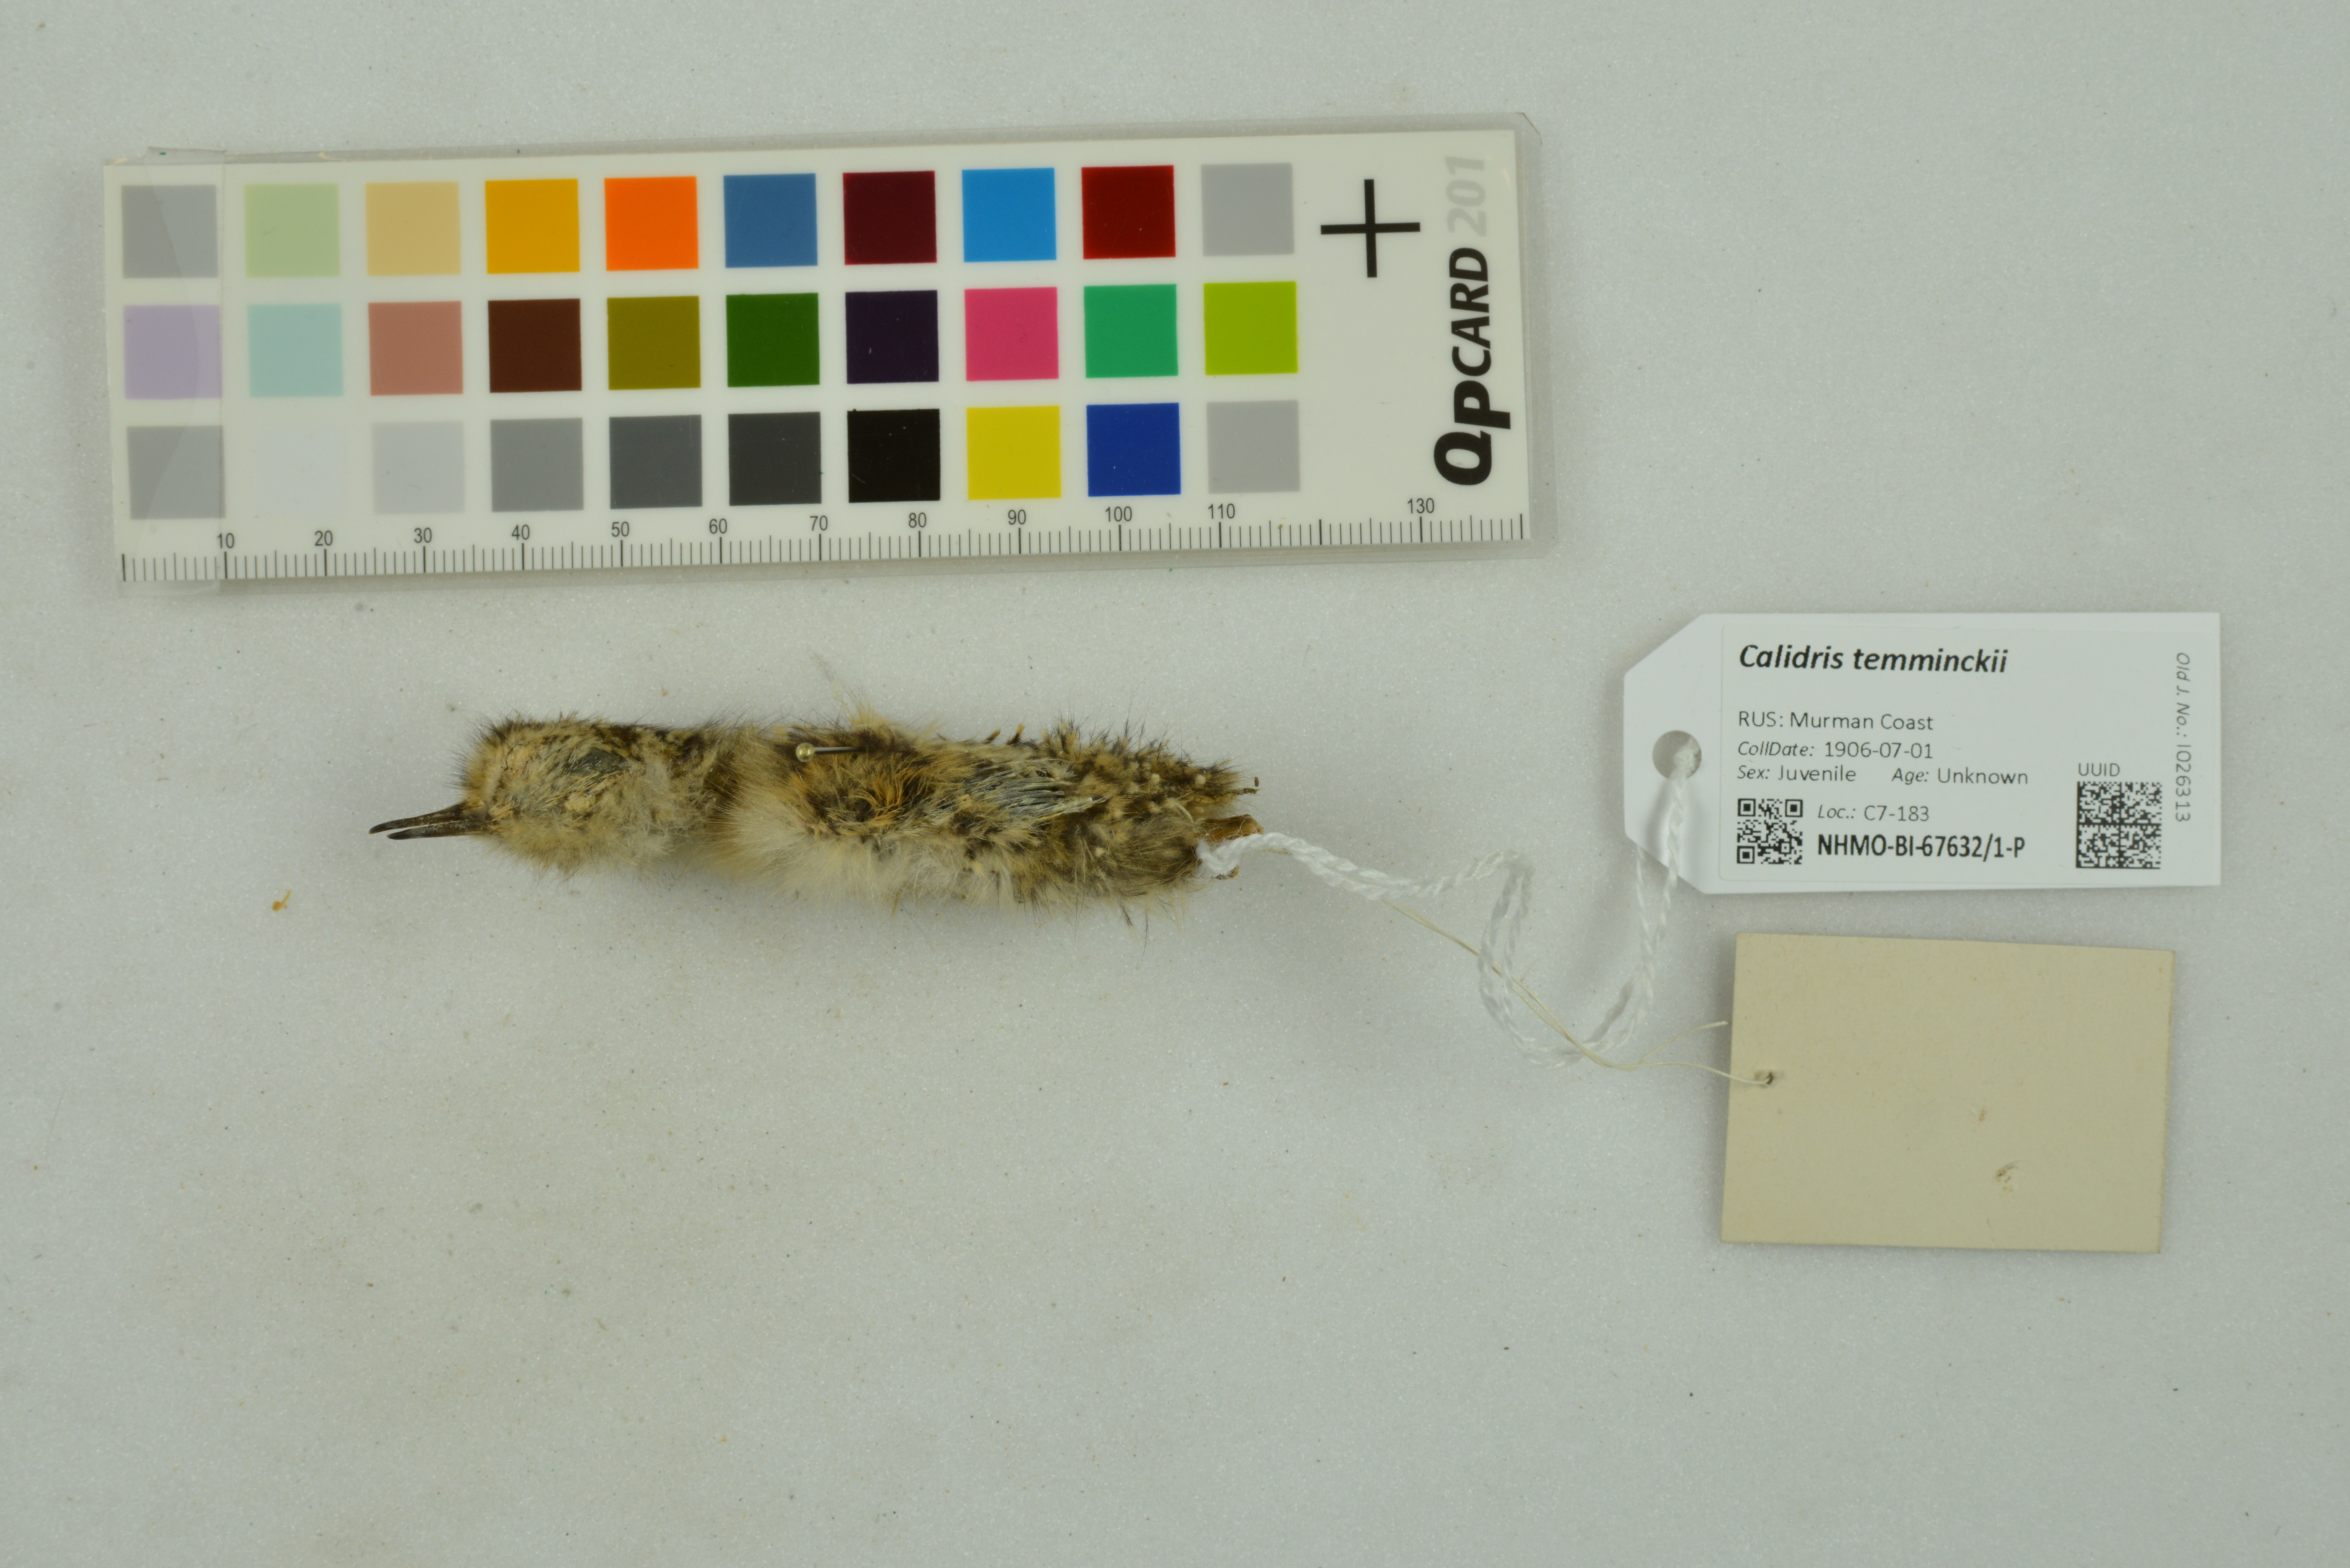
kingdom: Animalia
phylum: Chordata
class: Aves
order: Charadriiformes
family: Scolopacidae
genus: Calidris
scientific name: Calidris temminckii
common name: Temminck's stint
